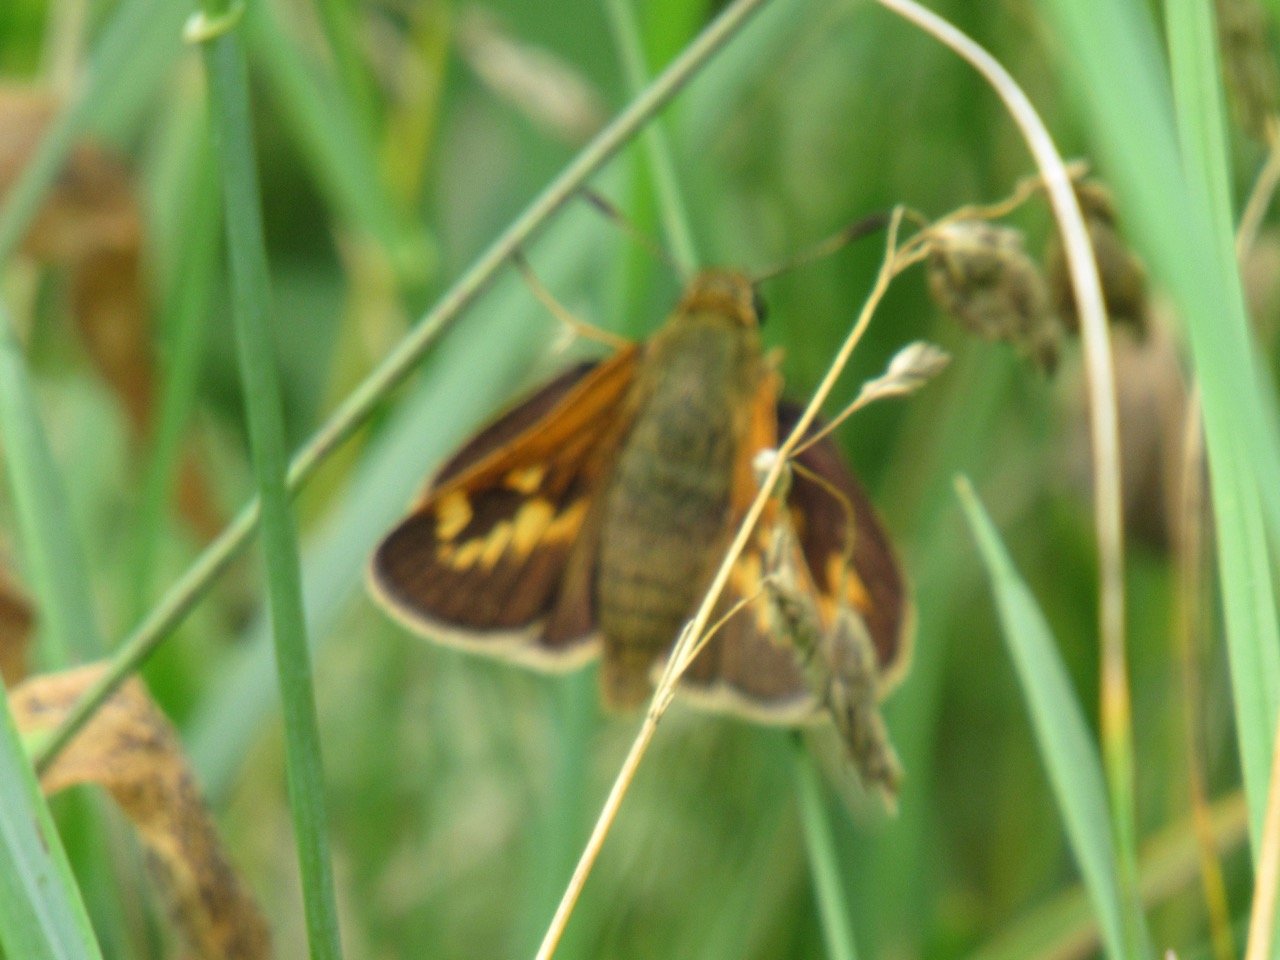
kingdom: Animalia
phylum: Arthropoda
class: Insecta
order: Lepidoptera
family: Hesperiidae
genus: Polites
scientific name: Polites
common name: Long Dash Skipper
